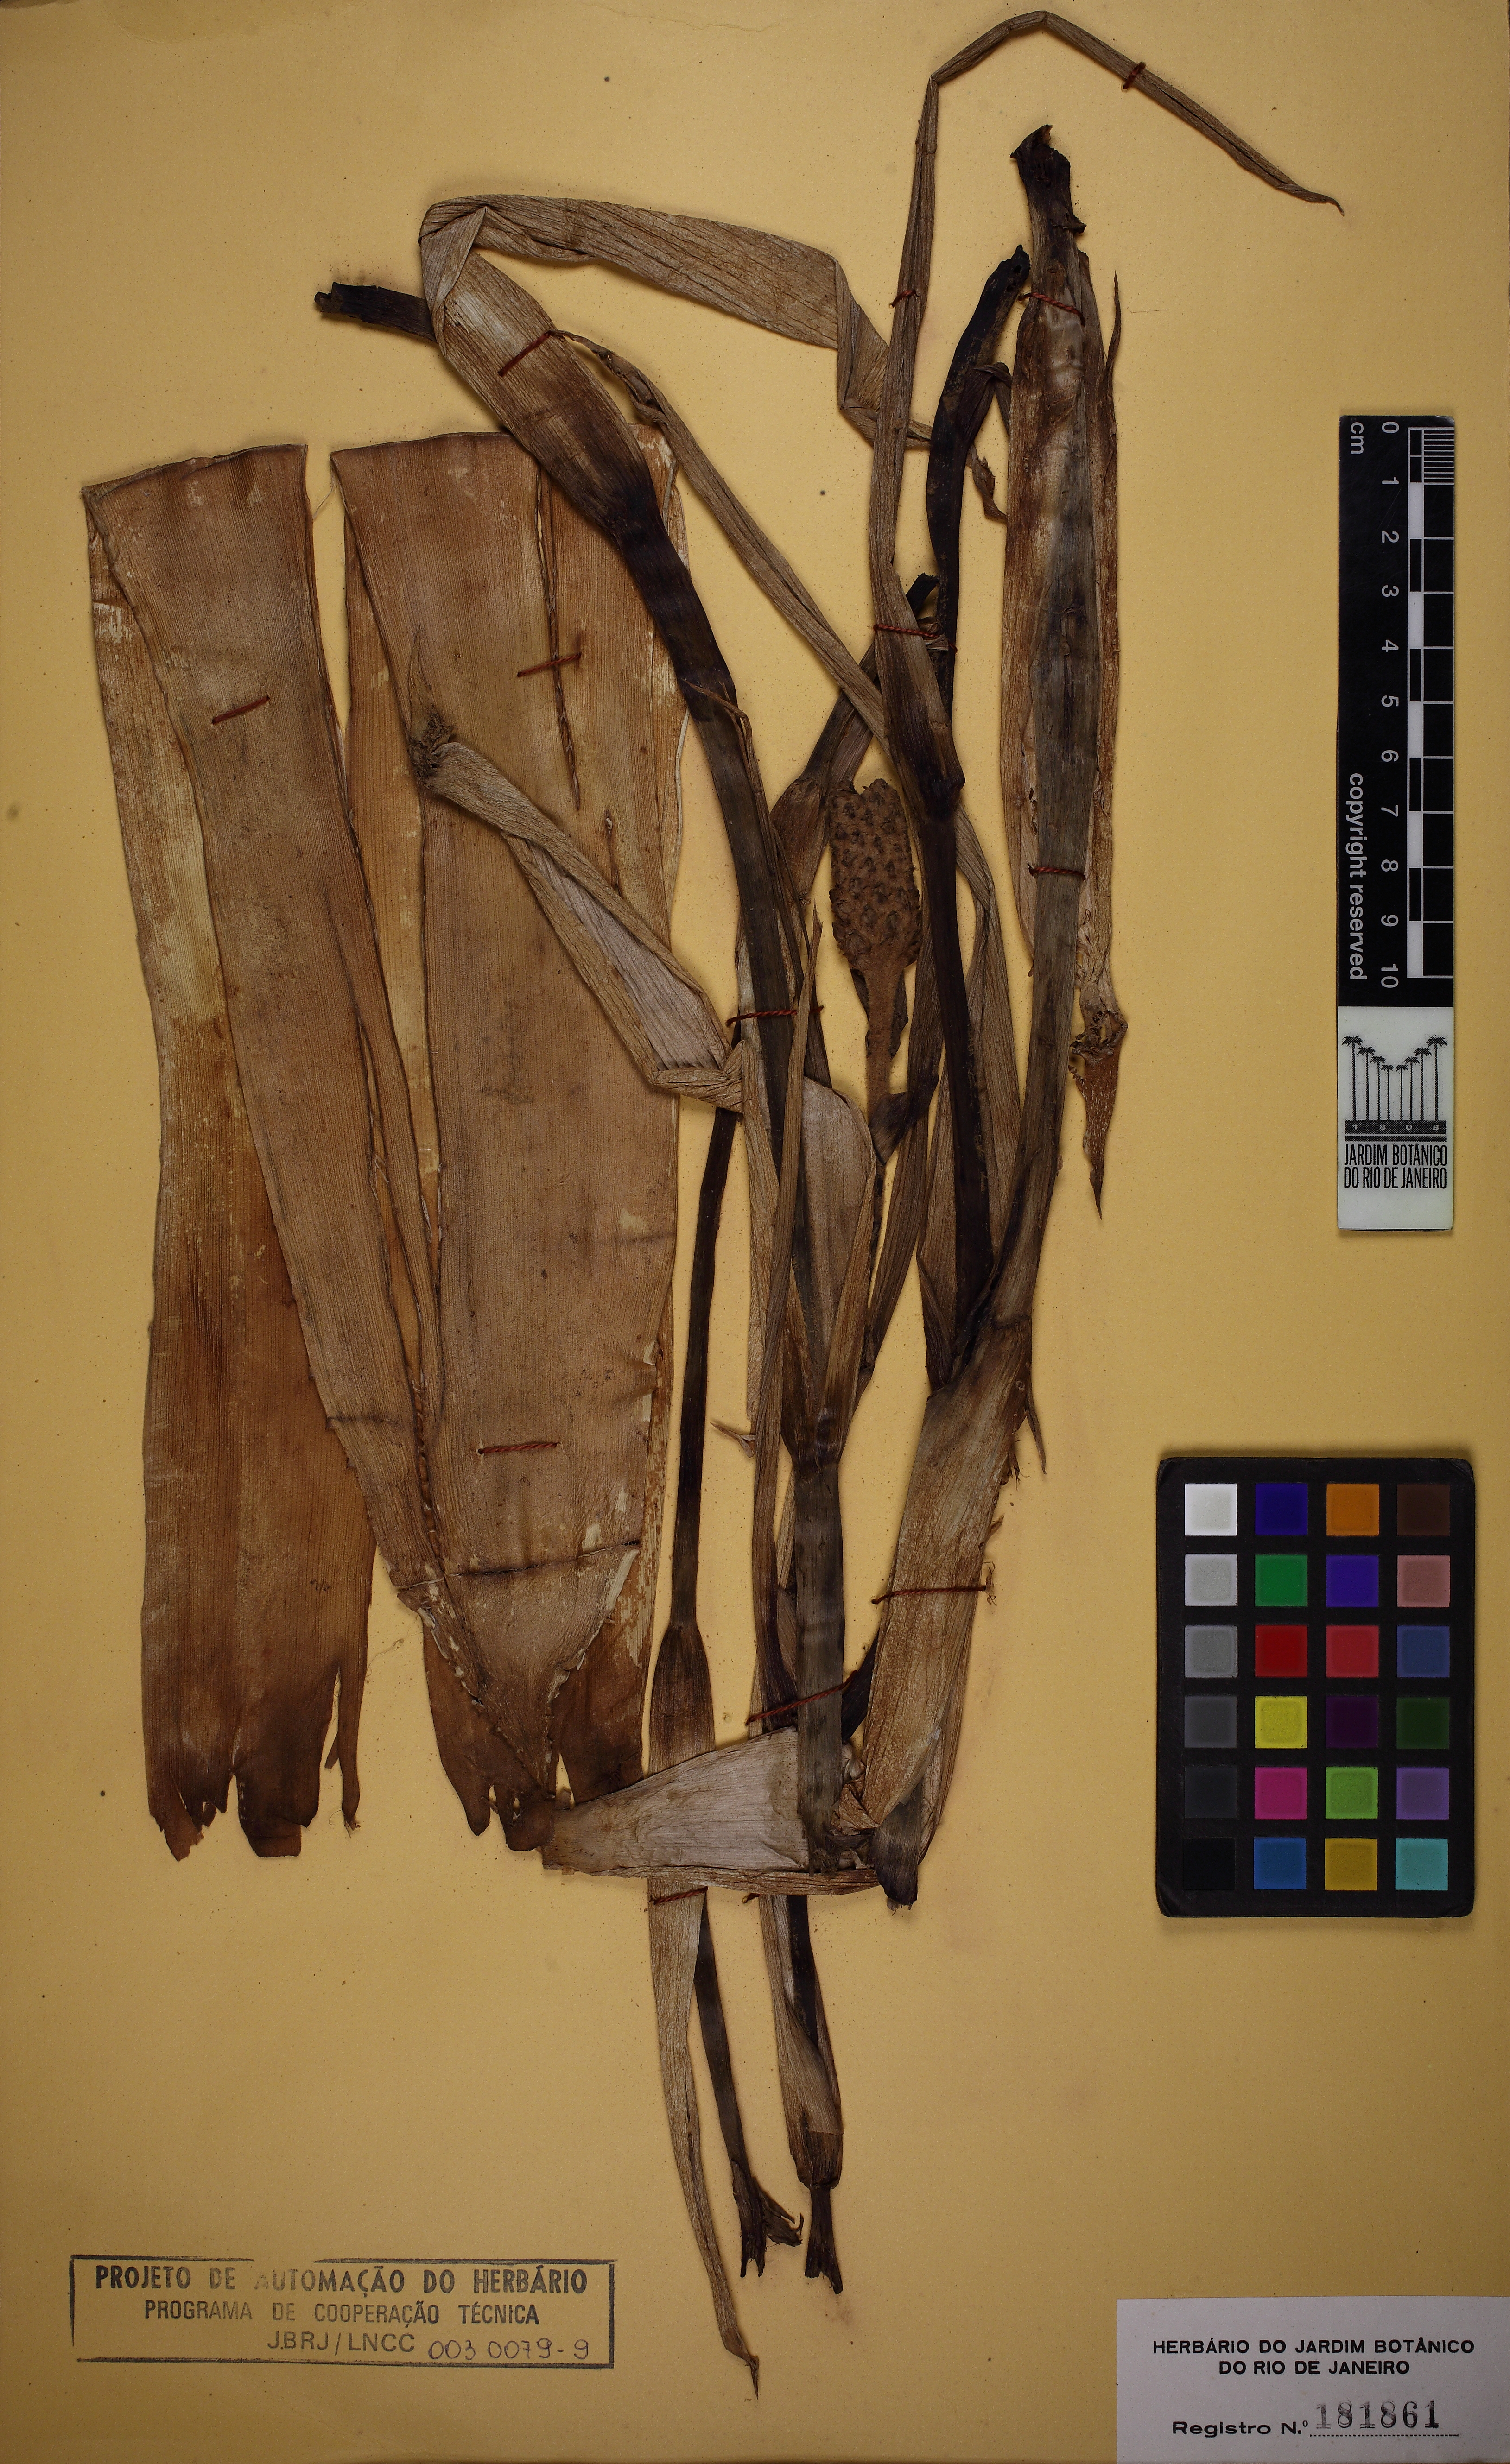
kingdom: Plantae
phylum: Tracheophyta
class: Liliopsida
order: Poales
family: Bromeliaceae
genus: Aechmea
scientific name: Aechmea bromeliifolia
